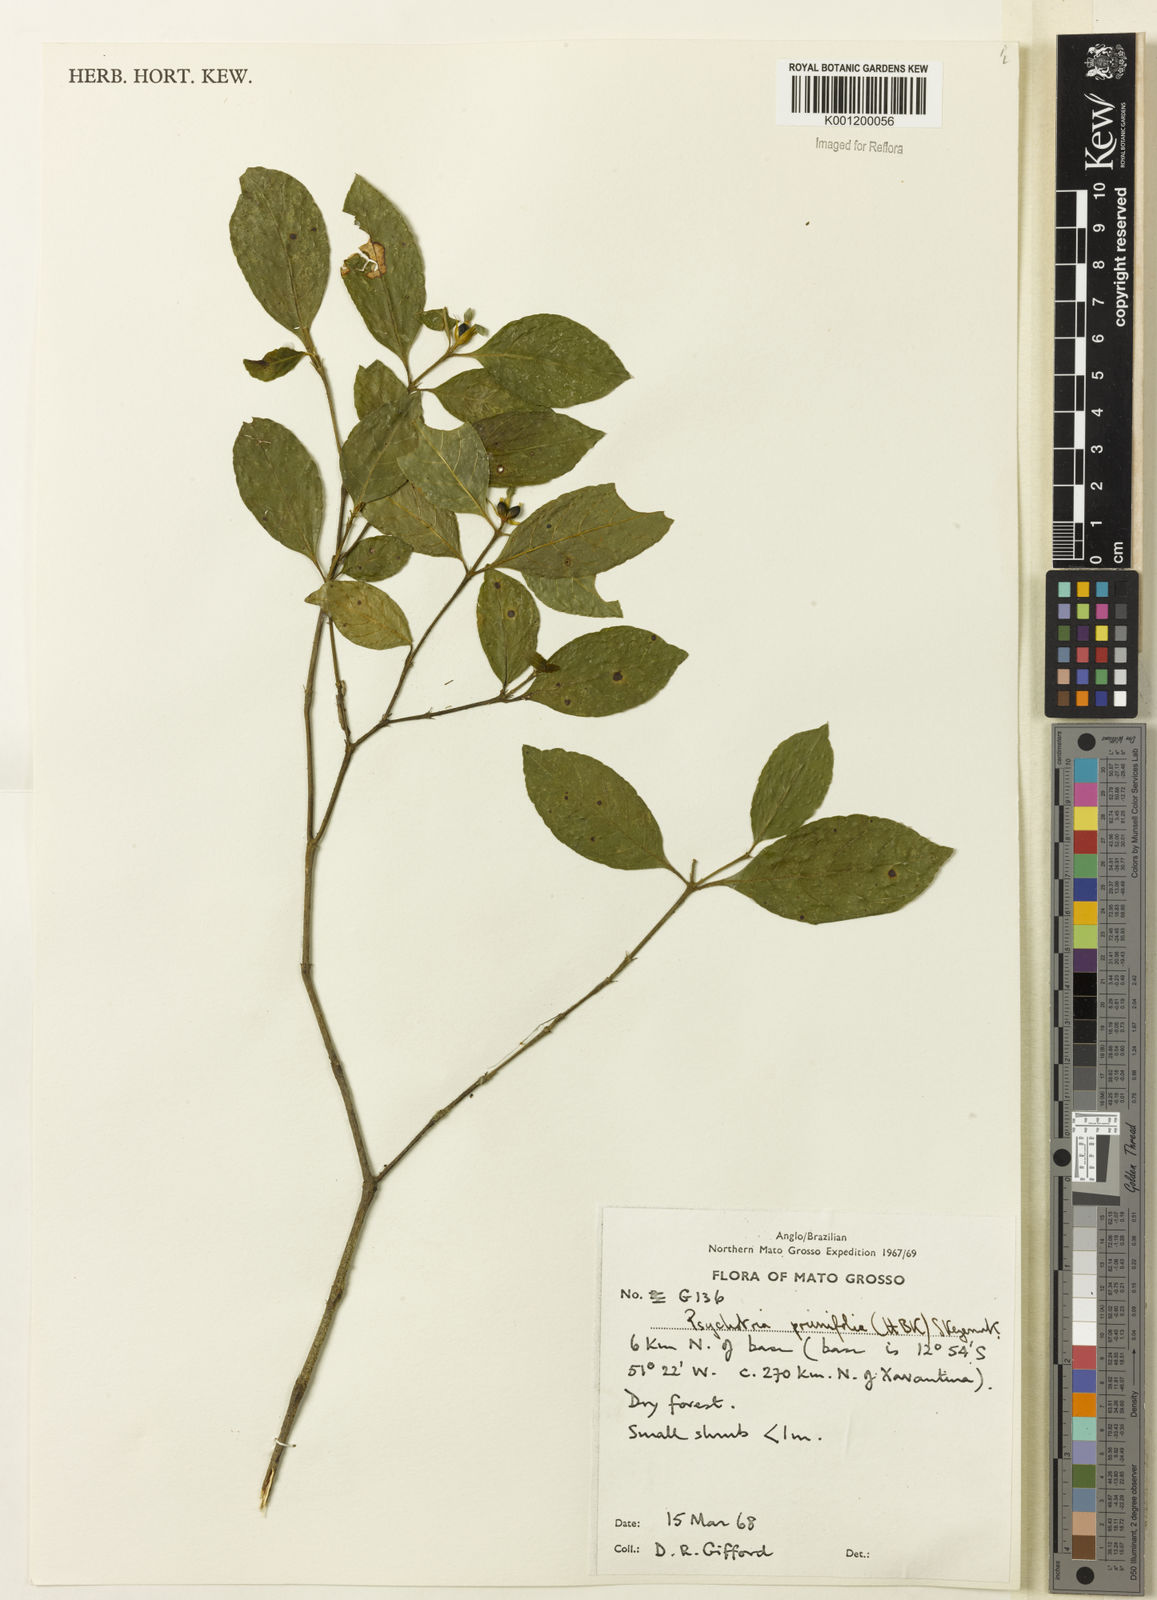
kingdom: Plantae
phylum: Tracheophyta
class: Magnoliopsida
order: Gentianales
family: Rubiaceae
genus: Palicourea
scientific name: Palicourea prunifolia
